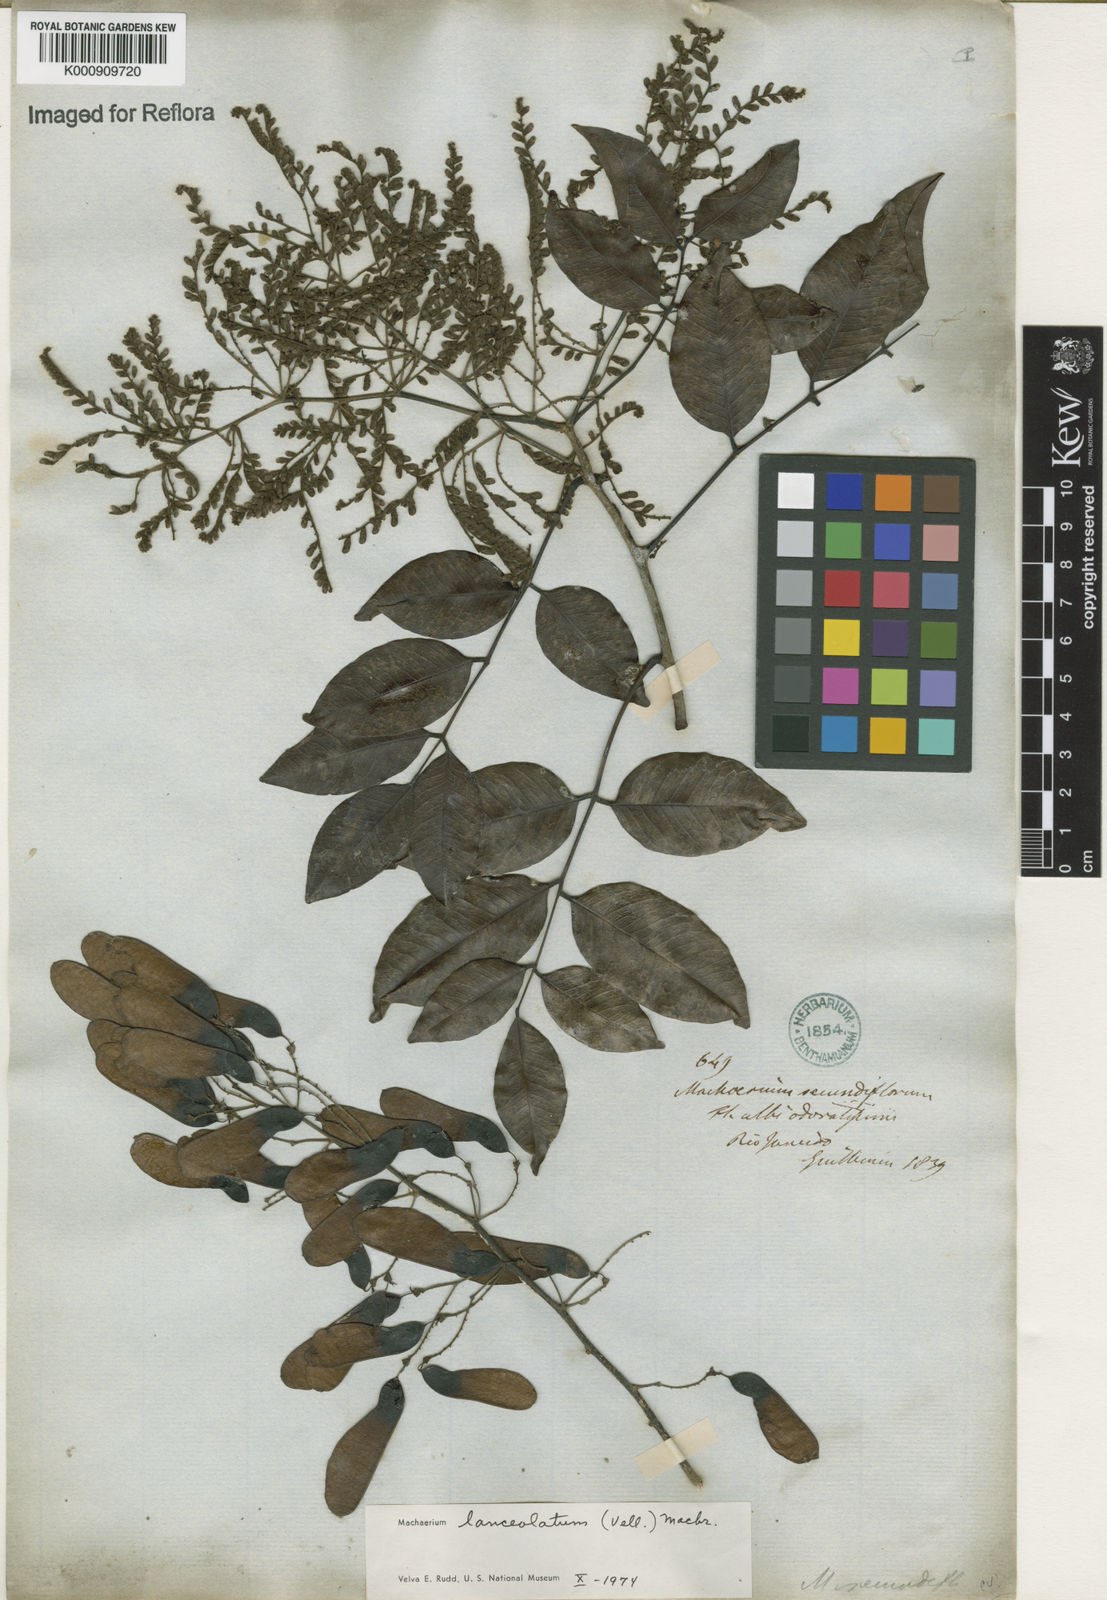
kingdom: Plantae
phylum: Tracheophyta
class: Magnoliopsida
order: Fabales
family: Fabaceae
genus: Machaerium
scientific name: Machaerium lanceolatum
